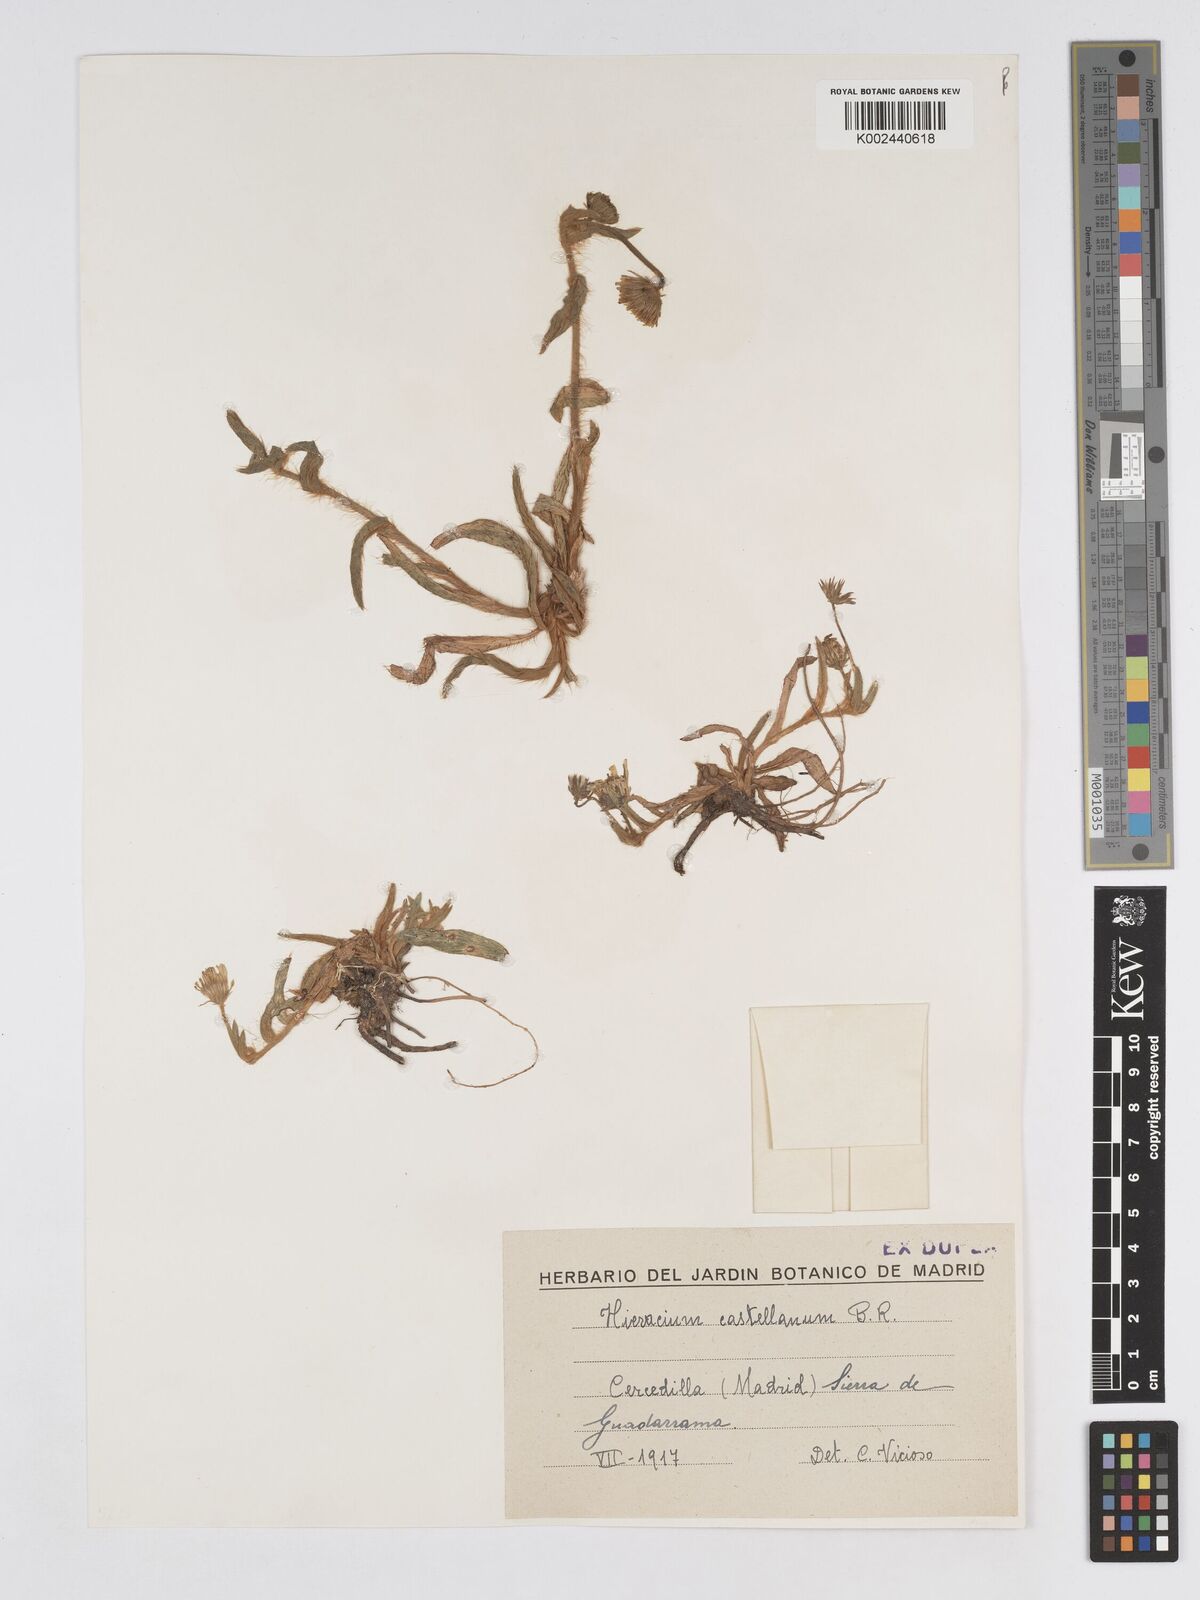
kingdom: Plantae
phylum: Tracheophyta
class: Magnoliopsida
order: Asterales
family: Asteraceae
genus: Pilosella
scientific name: Pilosella castellana
